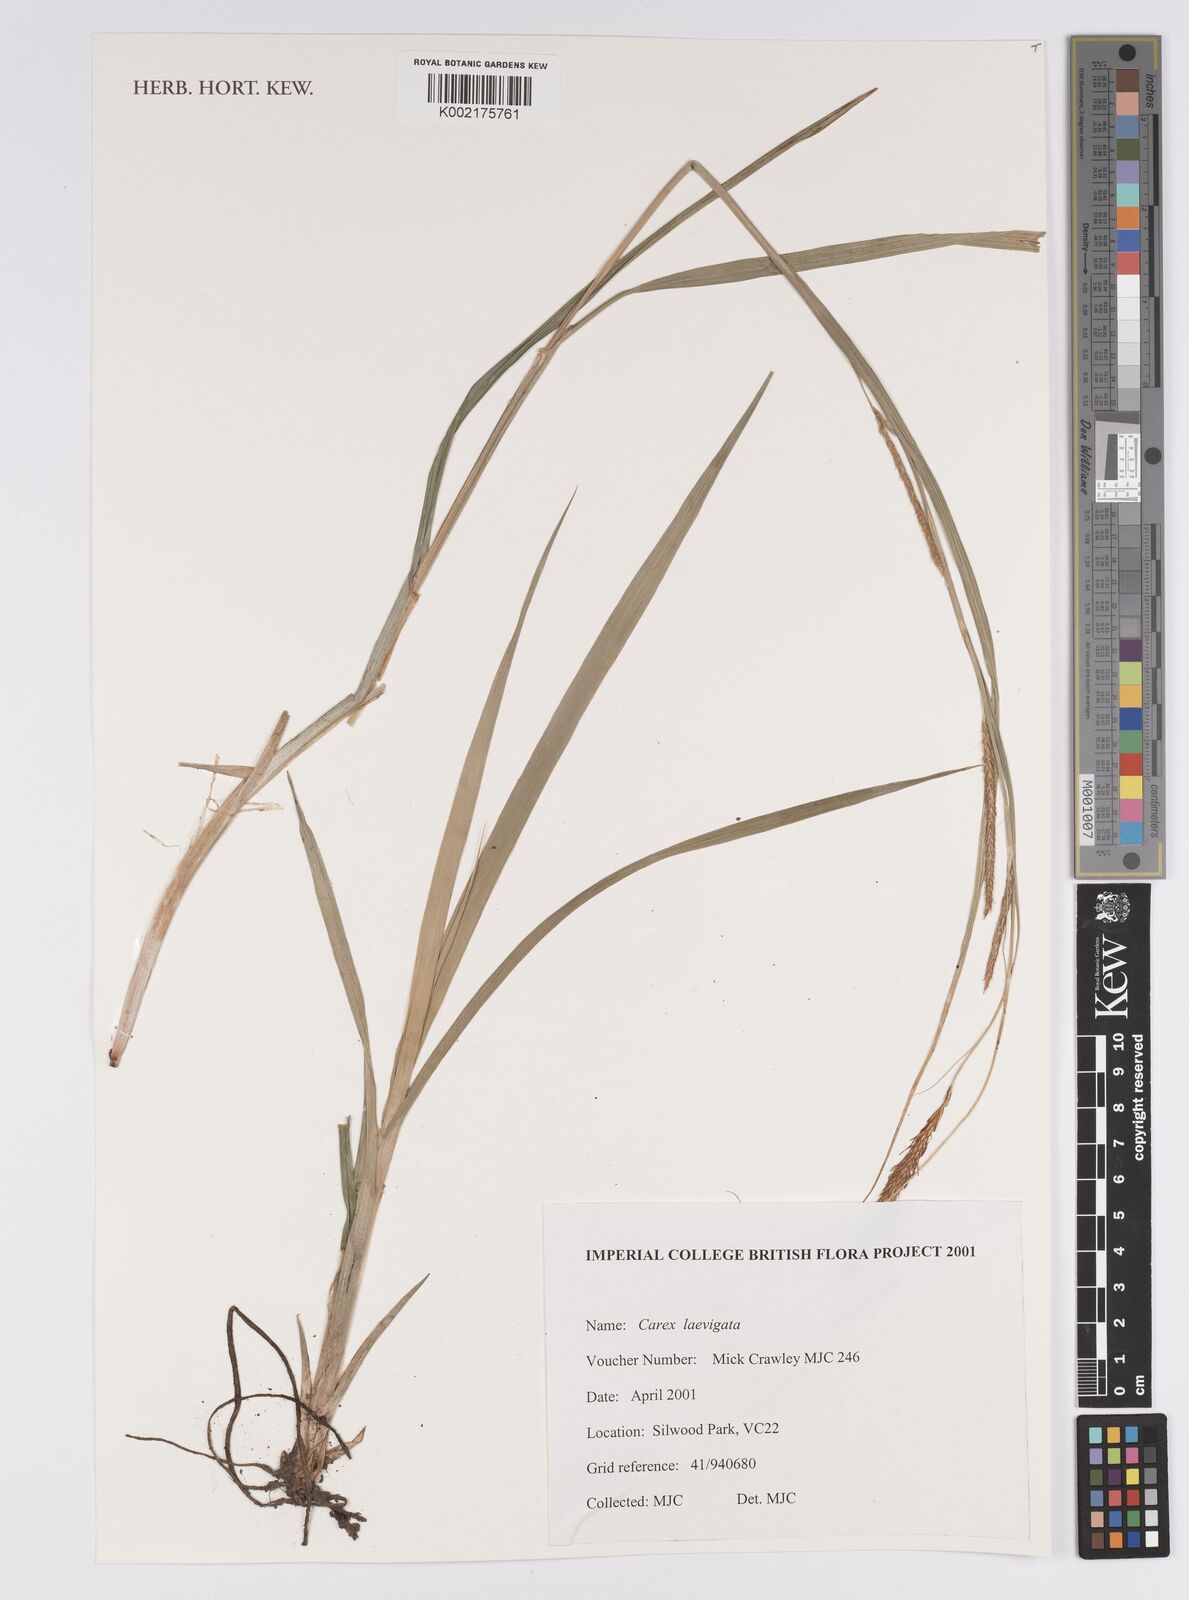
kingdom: Plantae
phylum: Tracheophyta
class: Liliopsida
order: Poales
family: Cyperaceae
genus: Carex
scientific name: Carex laevigata
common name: Smooth-stalked sedge
